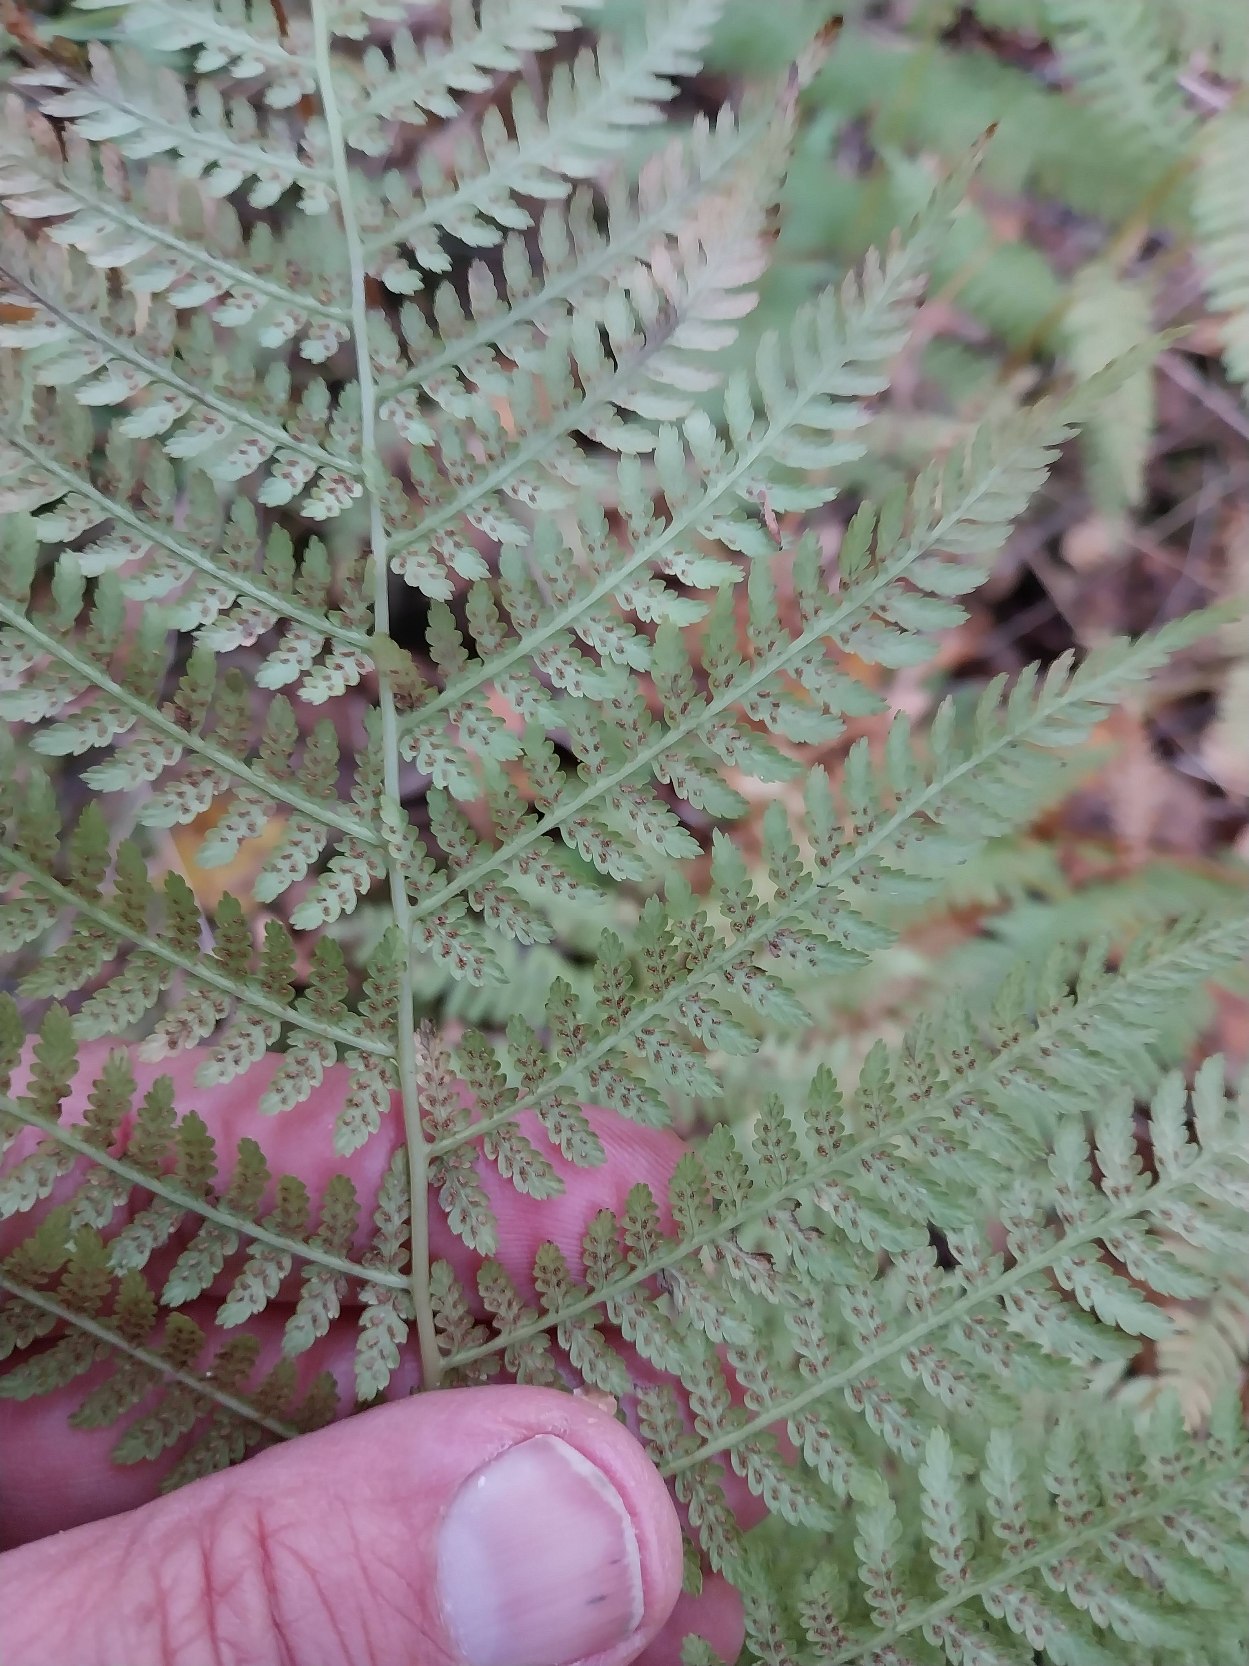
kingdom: Plantae
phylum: Tracheophyta
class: Polypodiopsida
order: Polypodiales
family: Athyriaceae
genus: Athyrium
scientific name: Athyrium filix-femina
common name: Fjerbregne
